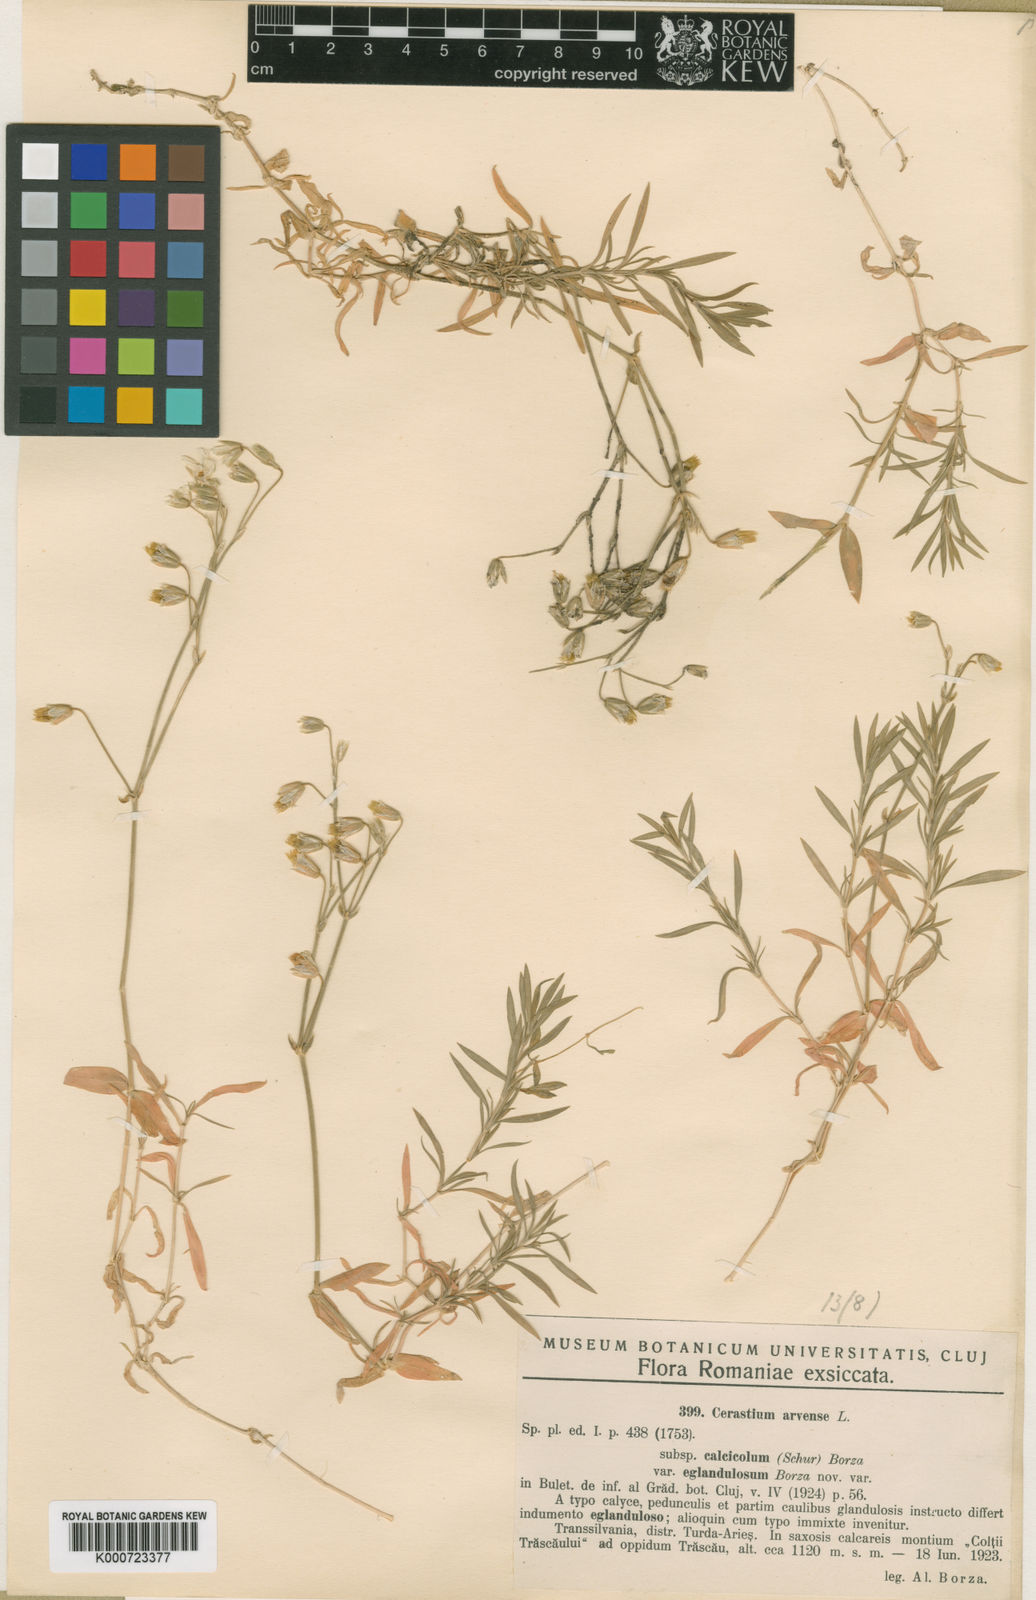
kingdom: Plantae
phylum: Tracheophyta
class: Magnoliopsida
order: Caryophyllales
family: Caryophyllaceae
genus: Cerastium
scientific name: Cerastium arvense
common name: Field mouse-ear
